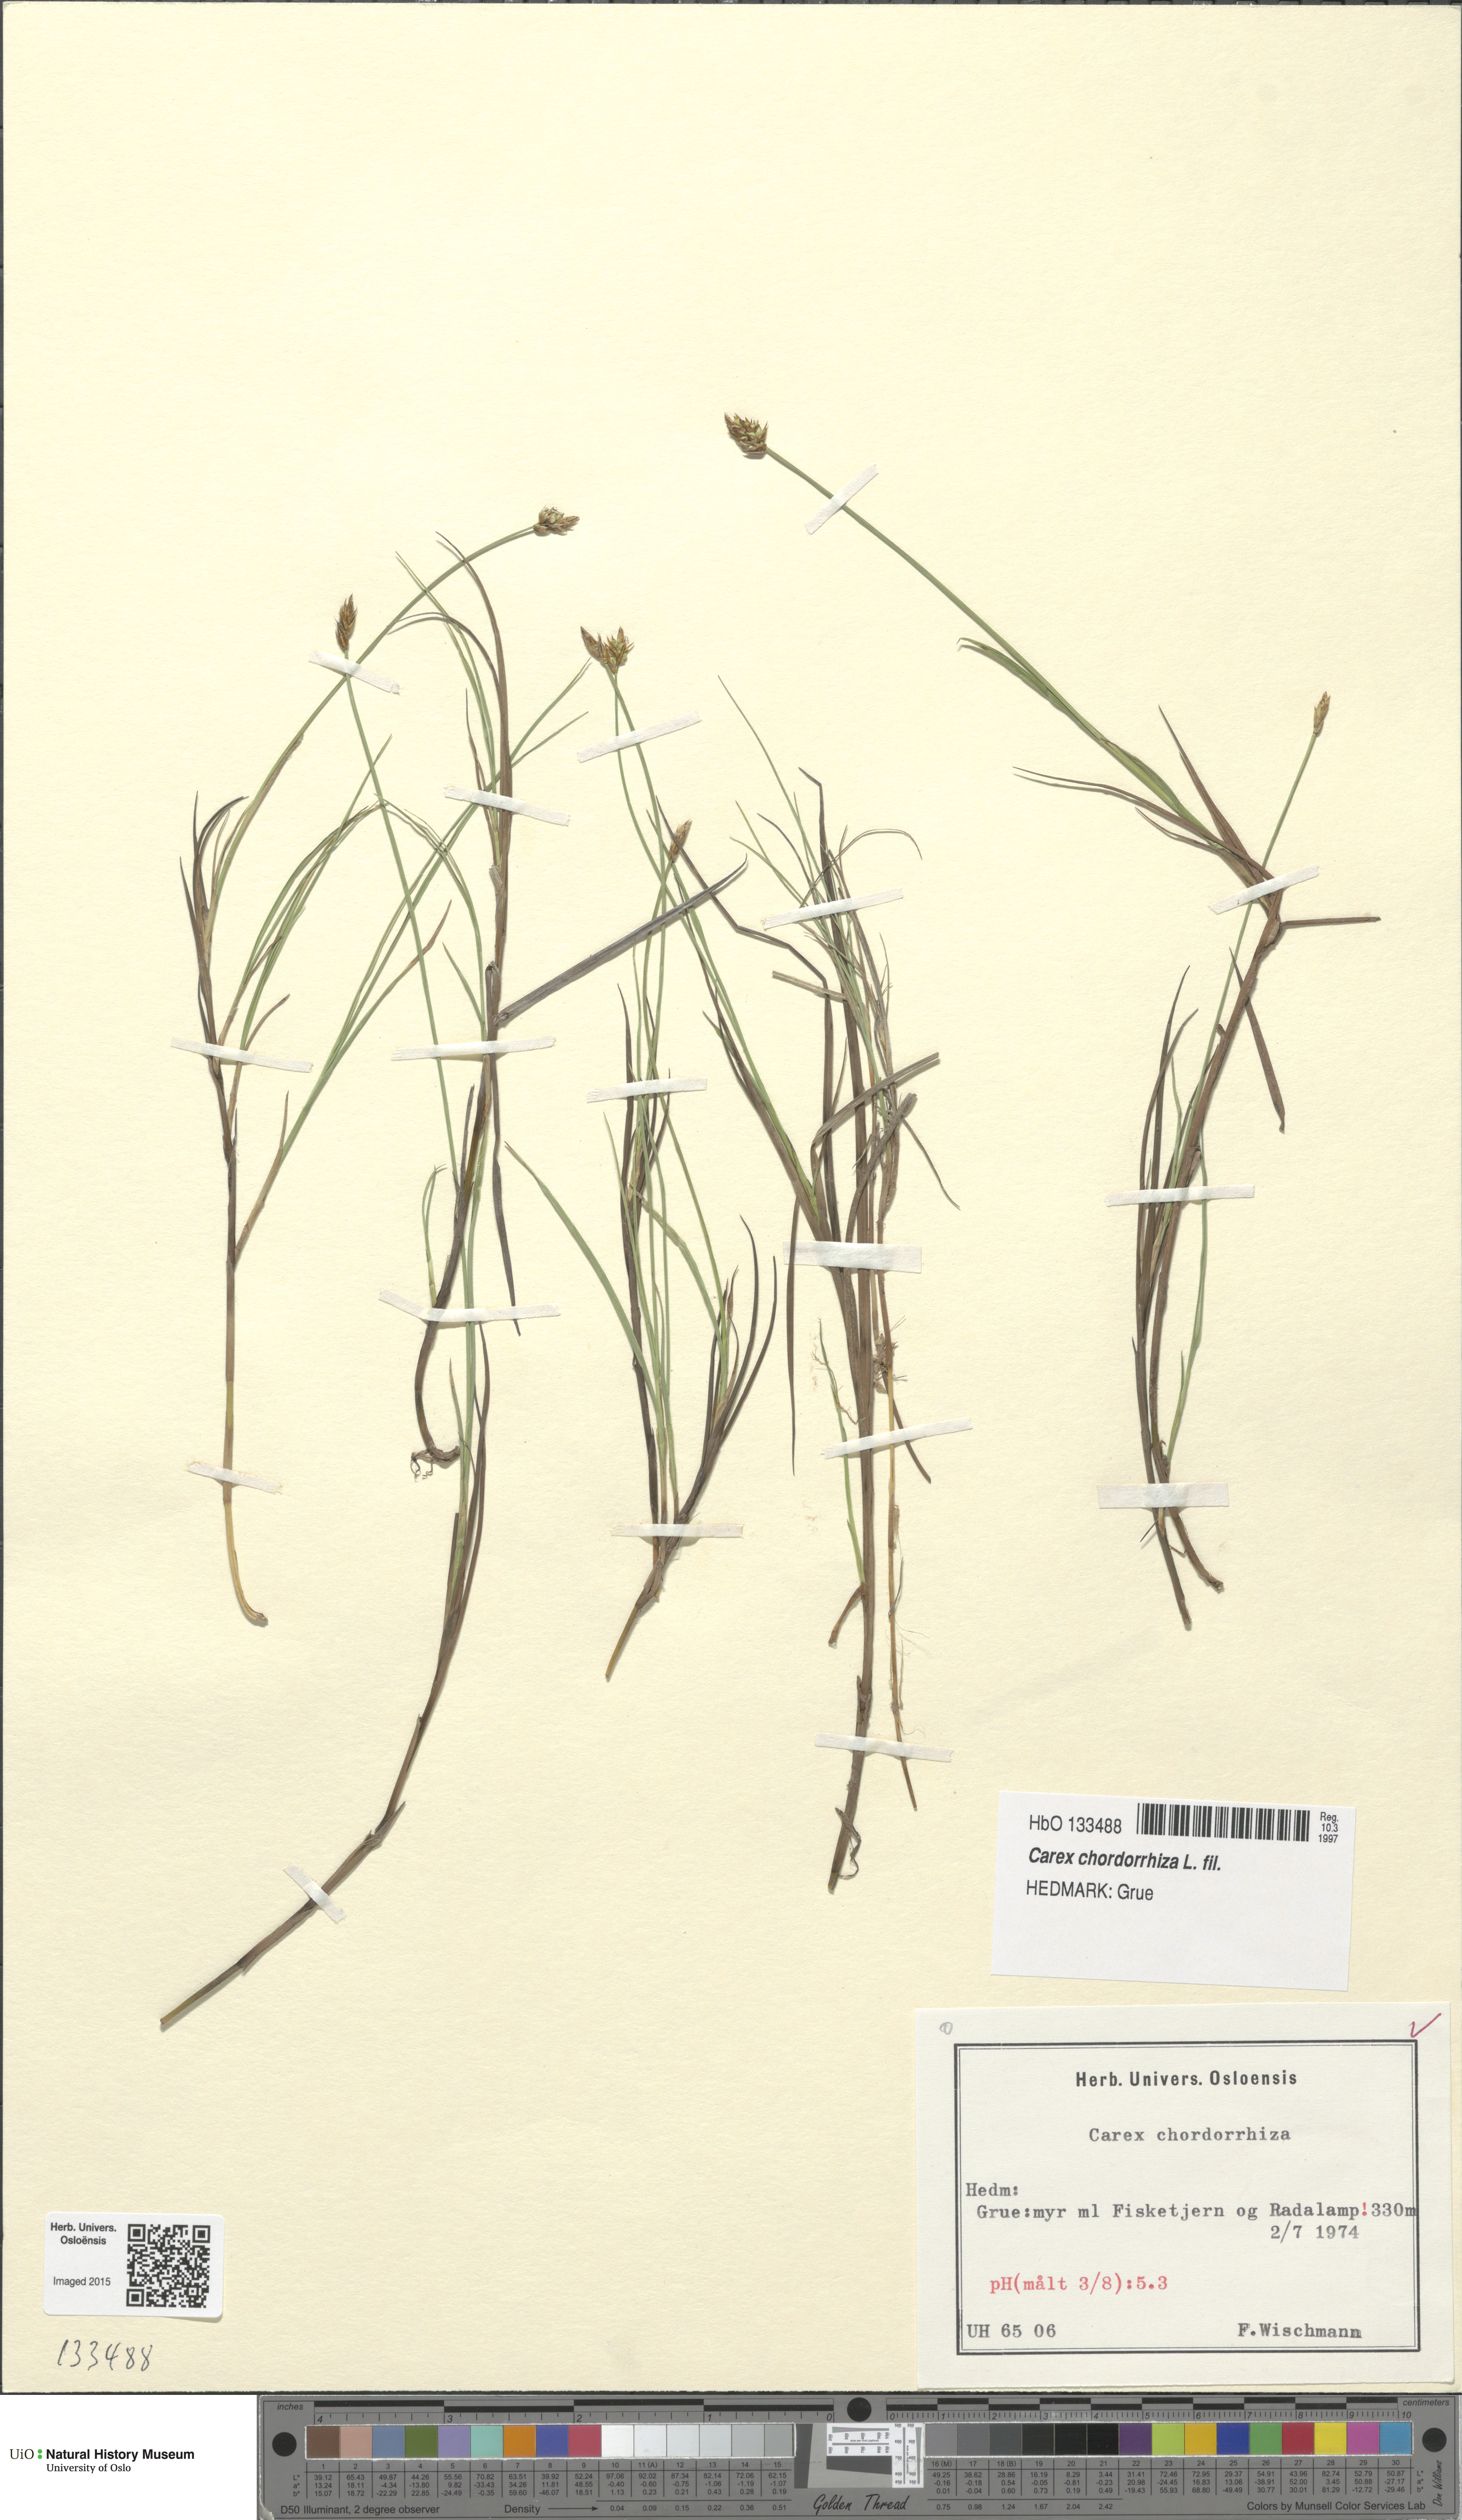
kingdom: Plantae
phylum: Tracheophyta
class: Liliopsida
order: Poales
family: Cyperaceae
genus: Carex
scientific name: Carex chordorrhiza
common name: String sedge
